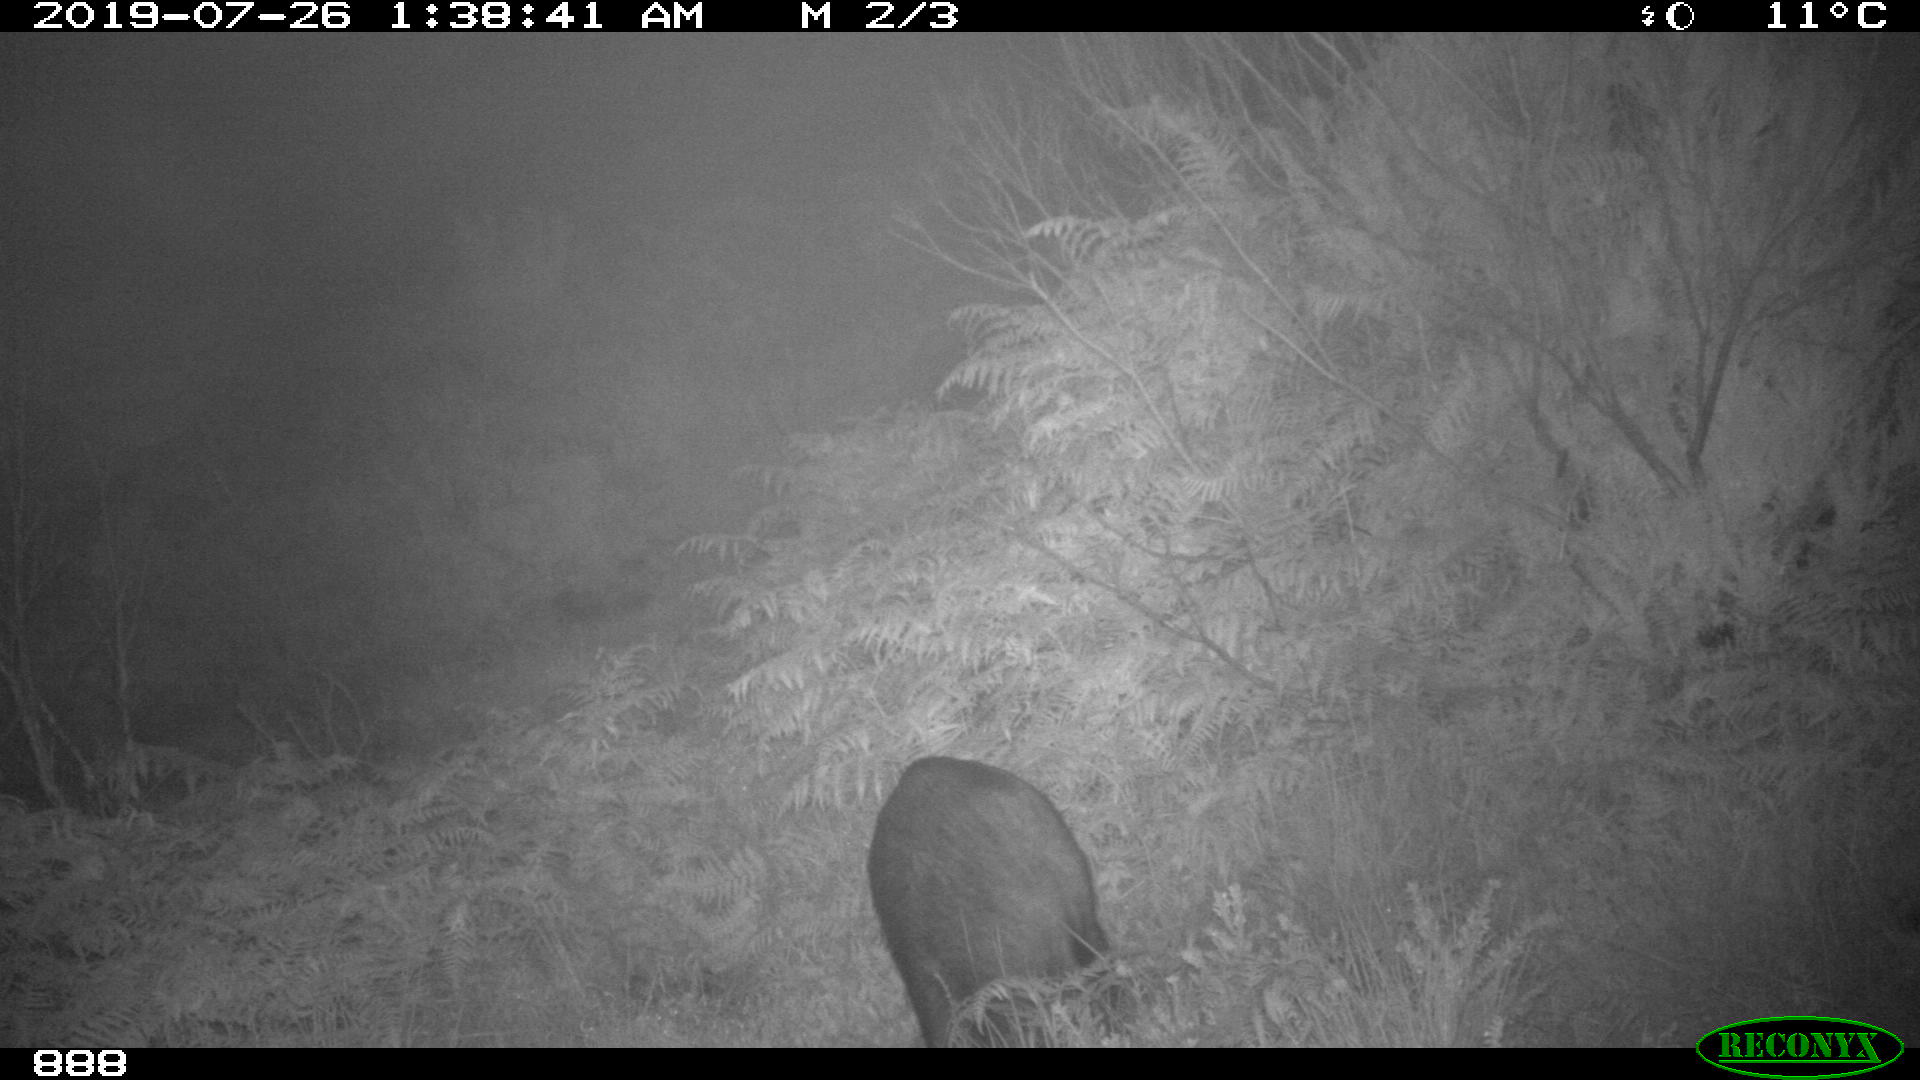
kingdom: Animalia
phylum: Chordata
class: Mammalia
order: Artiodactyla
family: Suidae
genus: Sus
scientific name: Sus scrofa
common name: Wild boar
